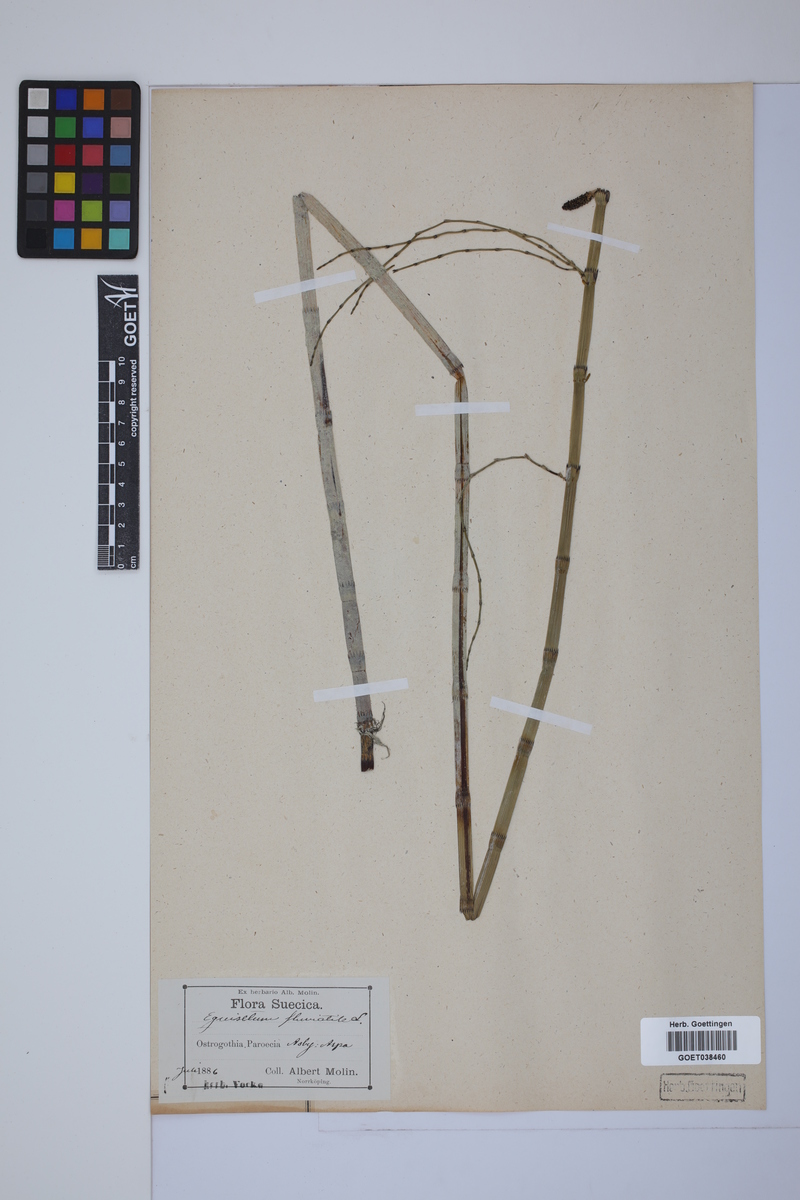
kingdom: Plantae
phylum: Tracheophyta
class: Polypodiopsida
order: Equisetales
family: Equisetaceae
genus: Equisetum
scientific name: Equisetum fluviatile
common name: Water horsetail
